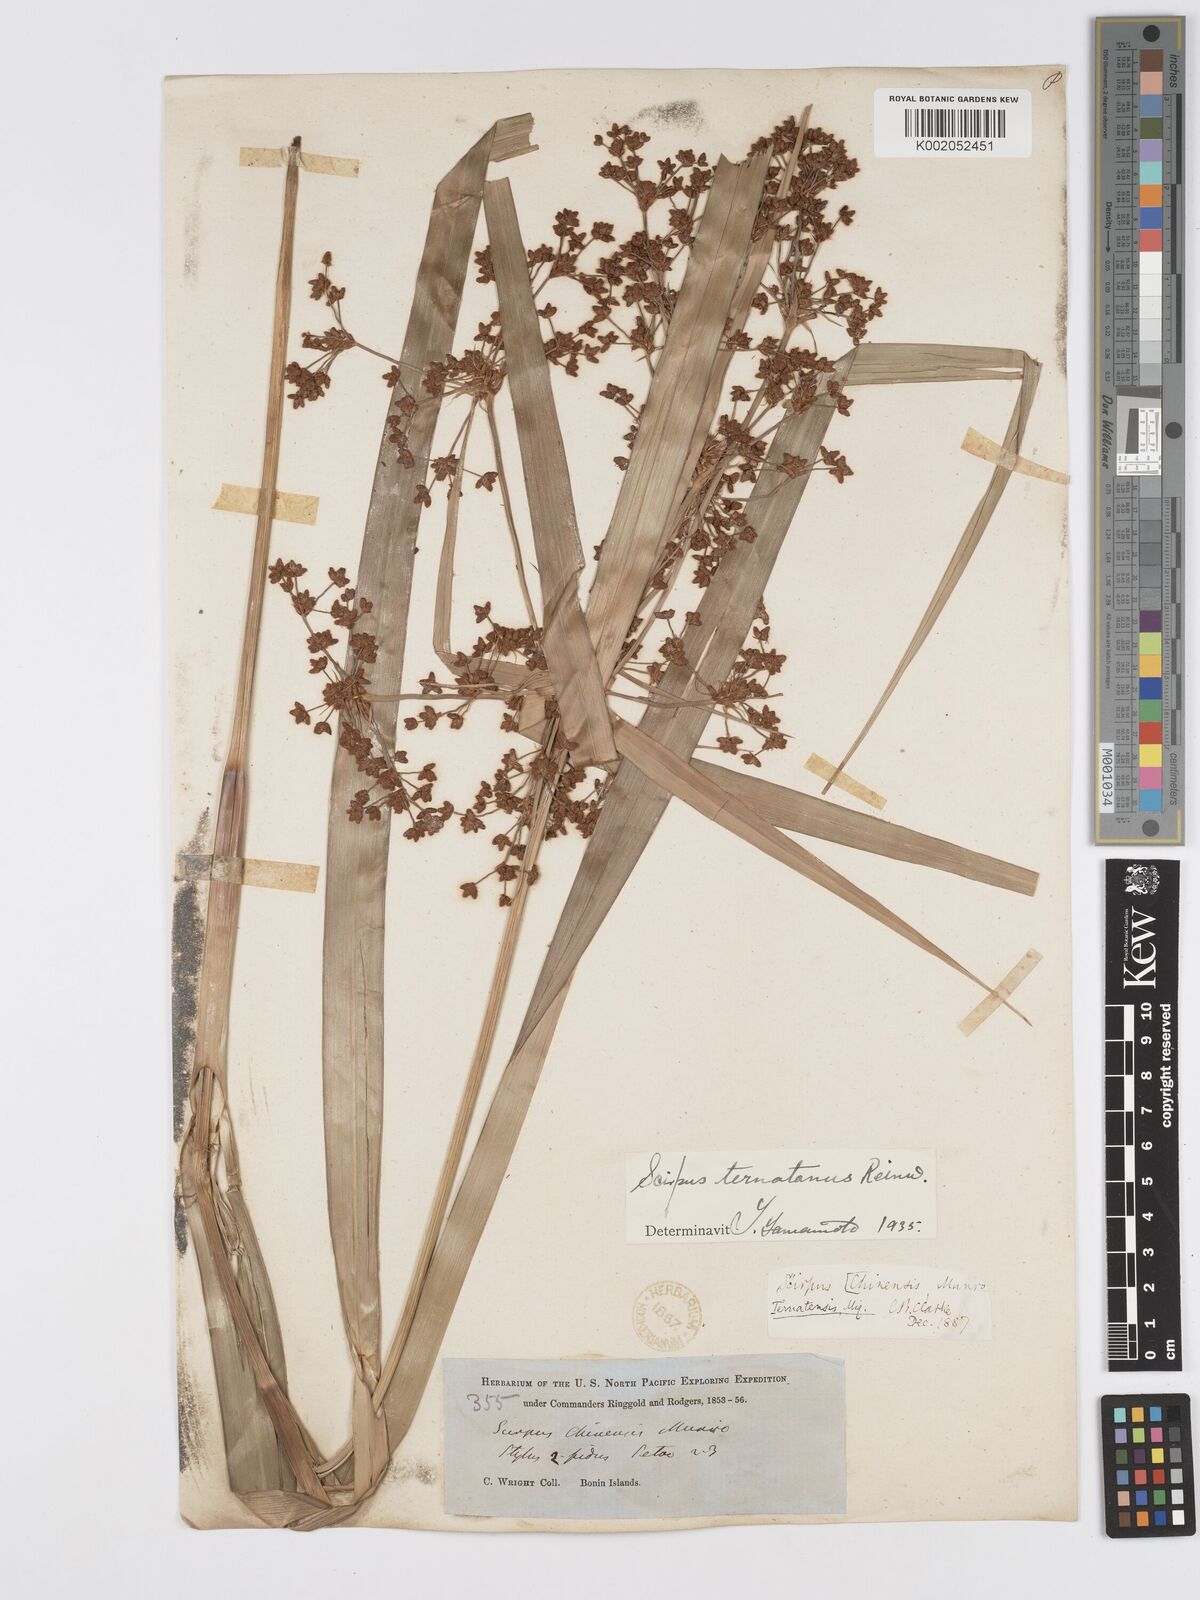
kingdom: Plantae
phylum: Tracheophyta
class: Liliopsida
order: Poales
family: Cyperaceae
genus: Scirpus
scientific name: Scirpus ternatanus
